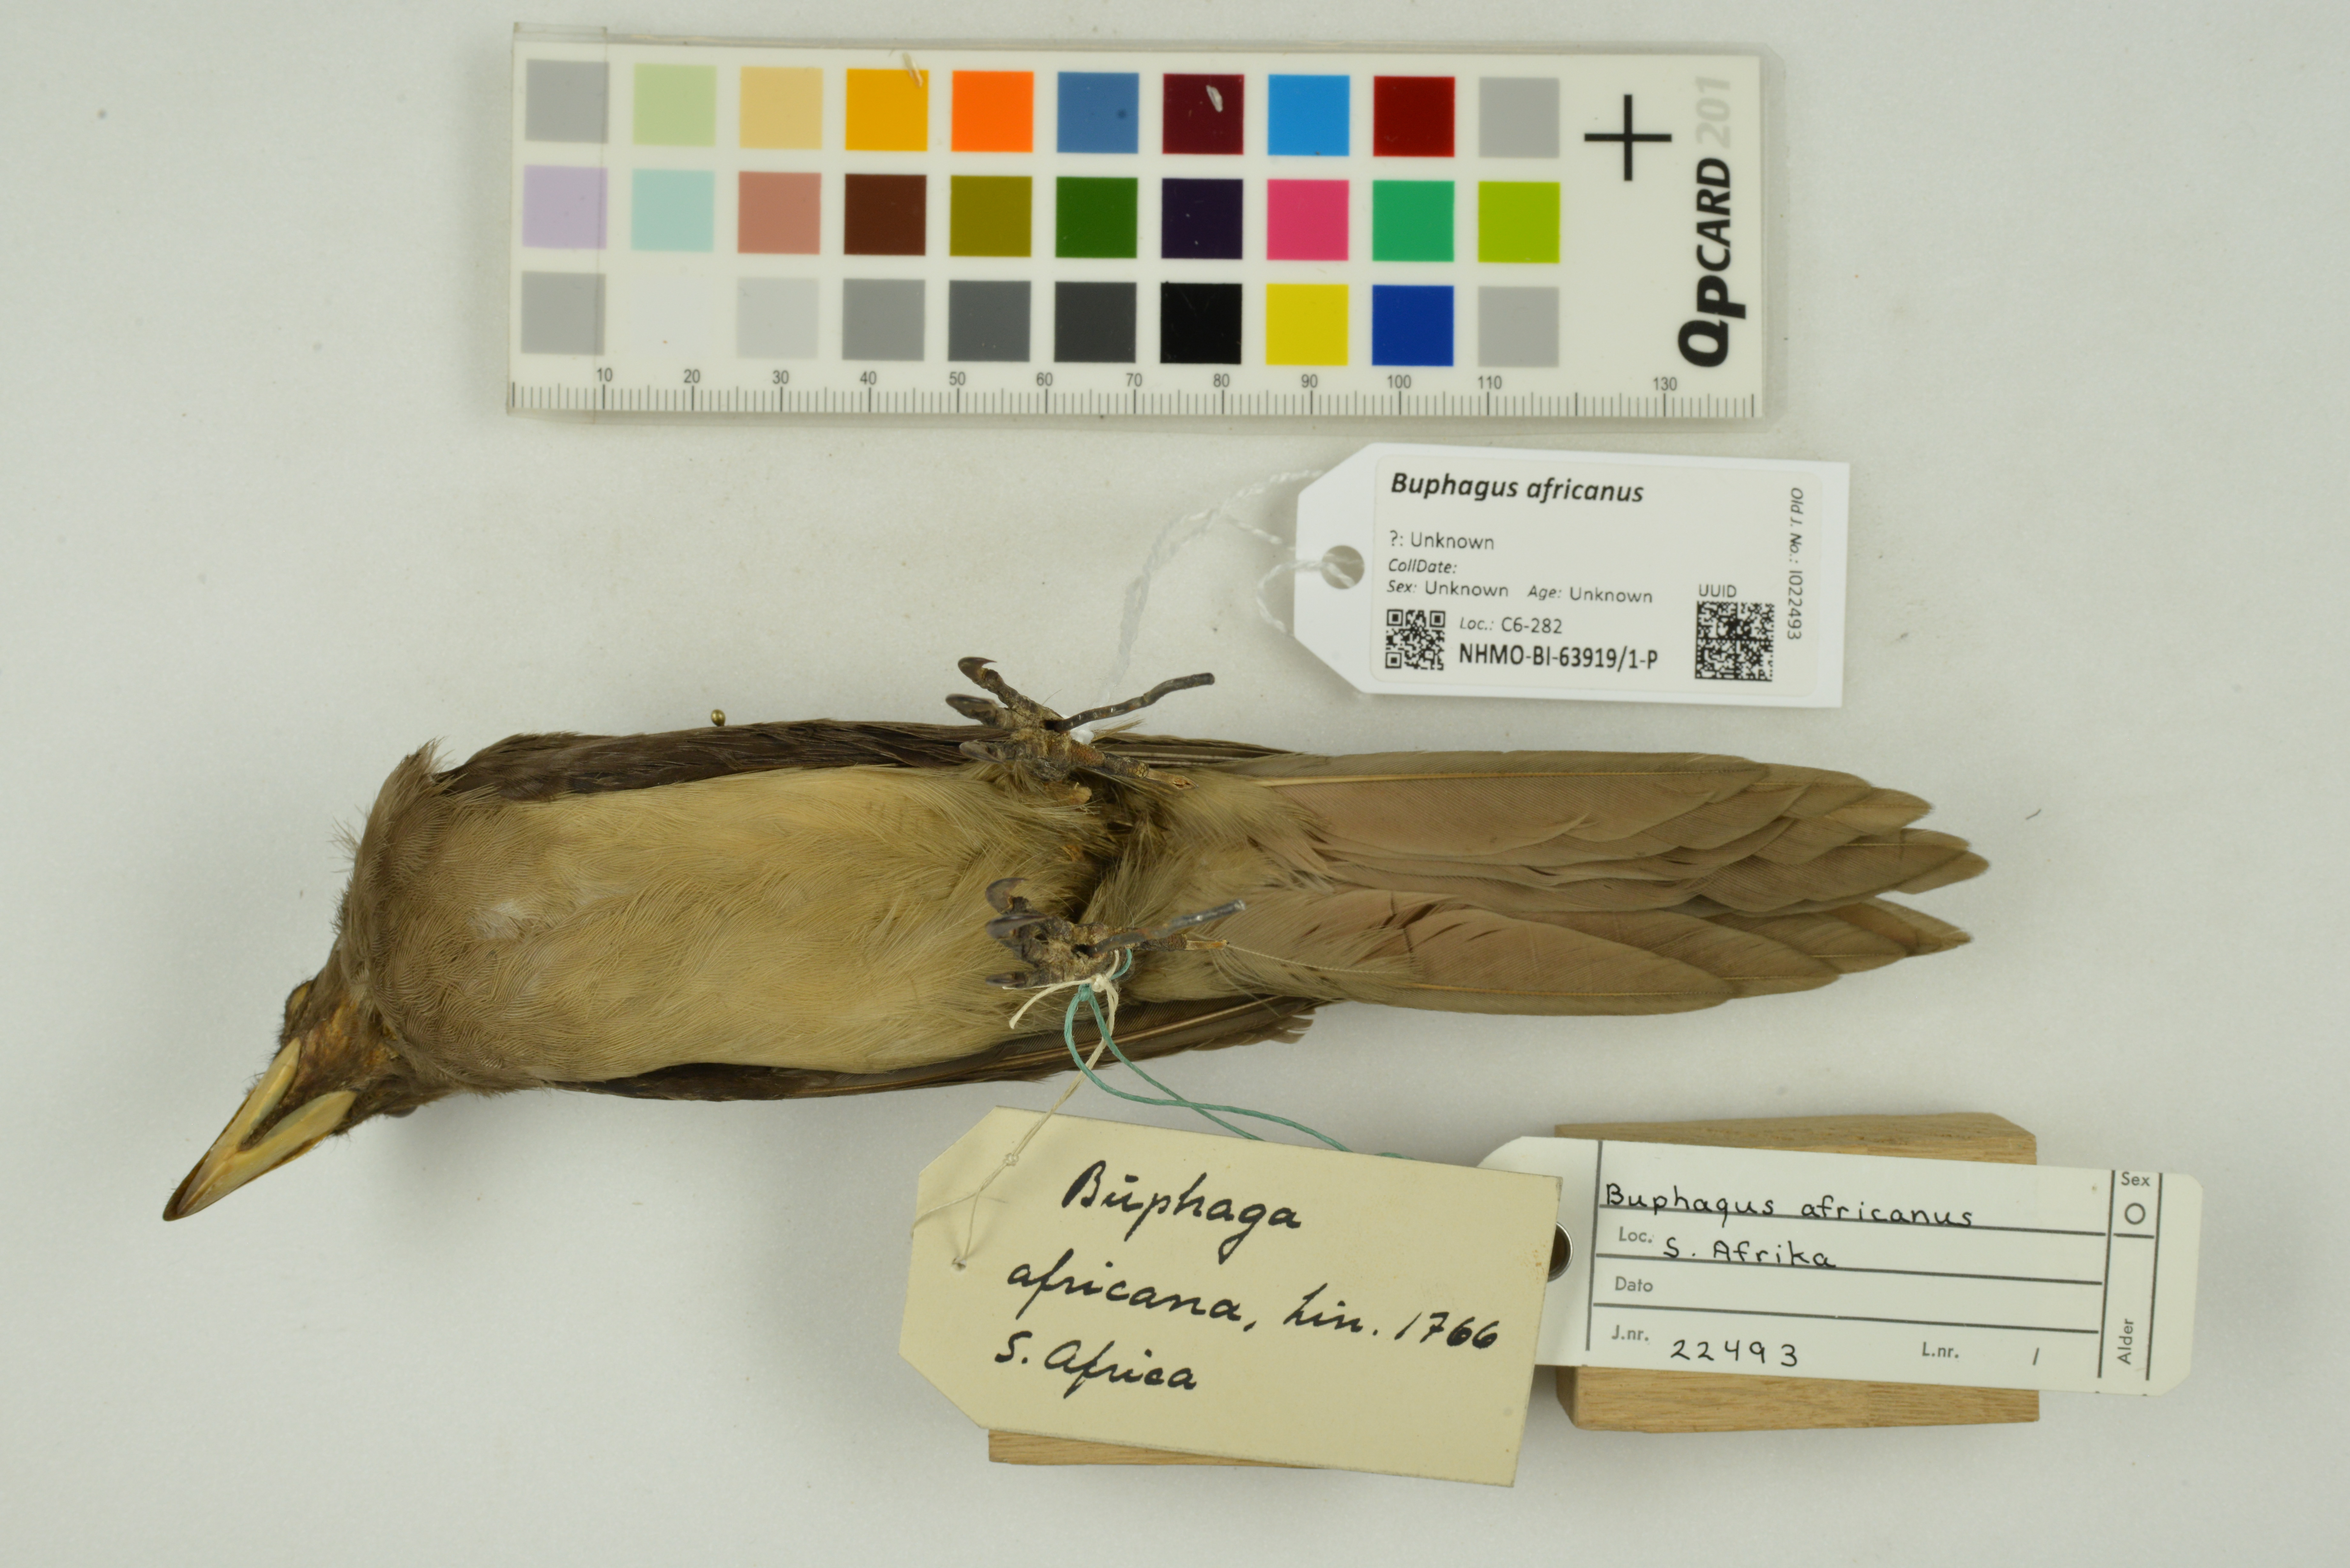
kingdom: Animalia
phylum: Chordata
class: Aves
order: Passeriformes
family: Buphagidae
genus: Buphagus
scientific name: Buphagus africanus
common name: Yellow-billed oxpecker
